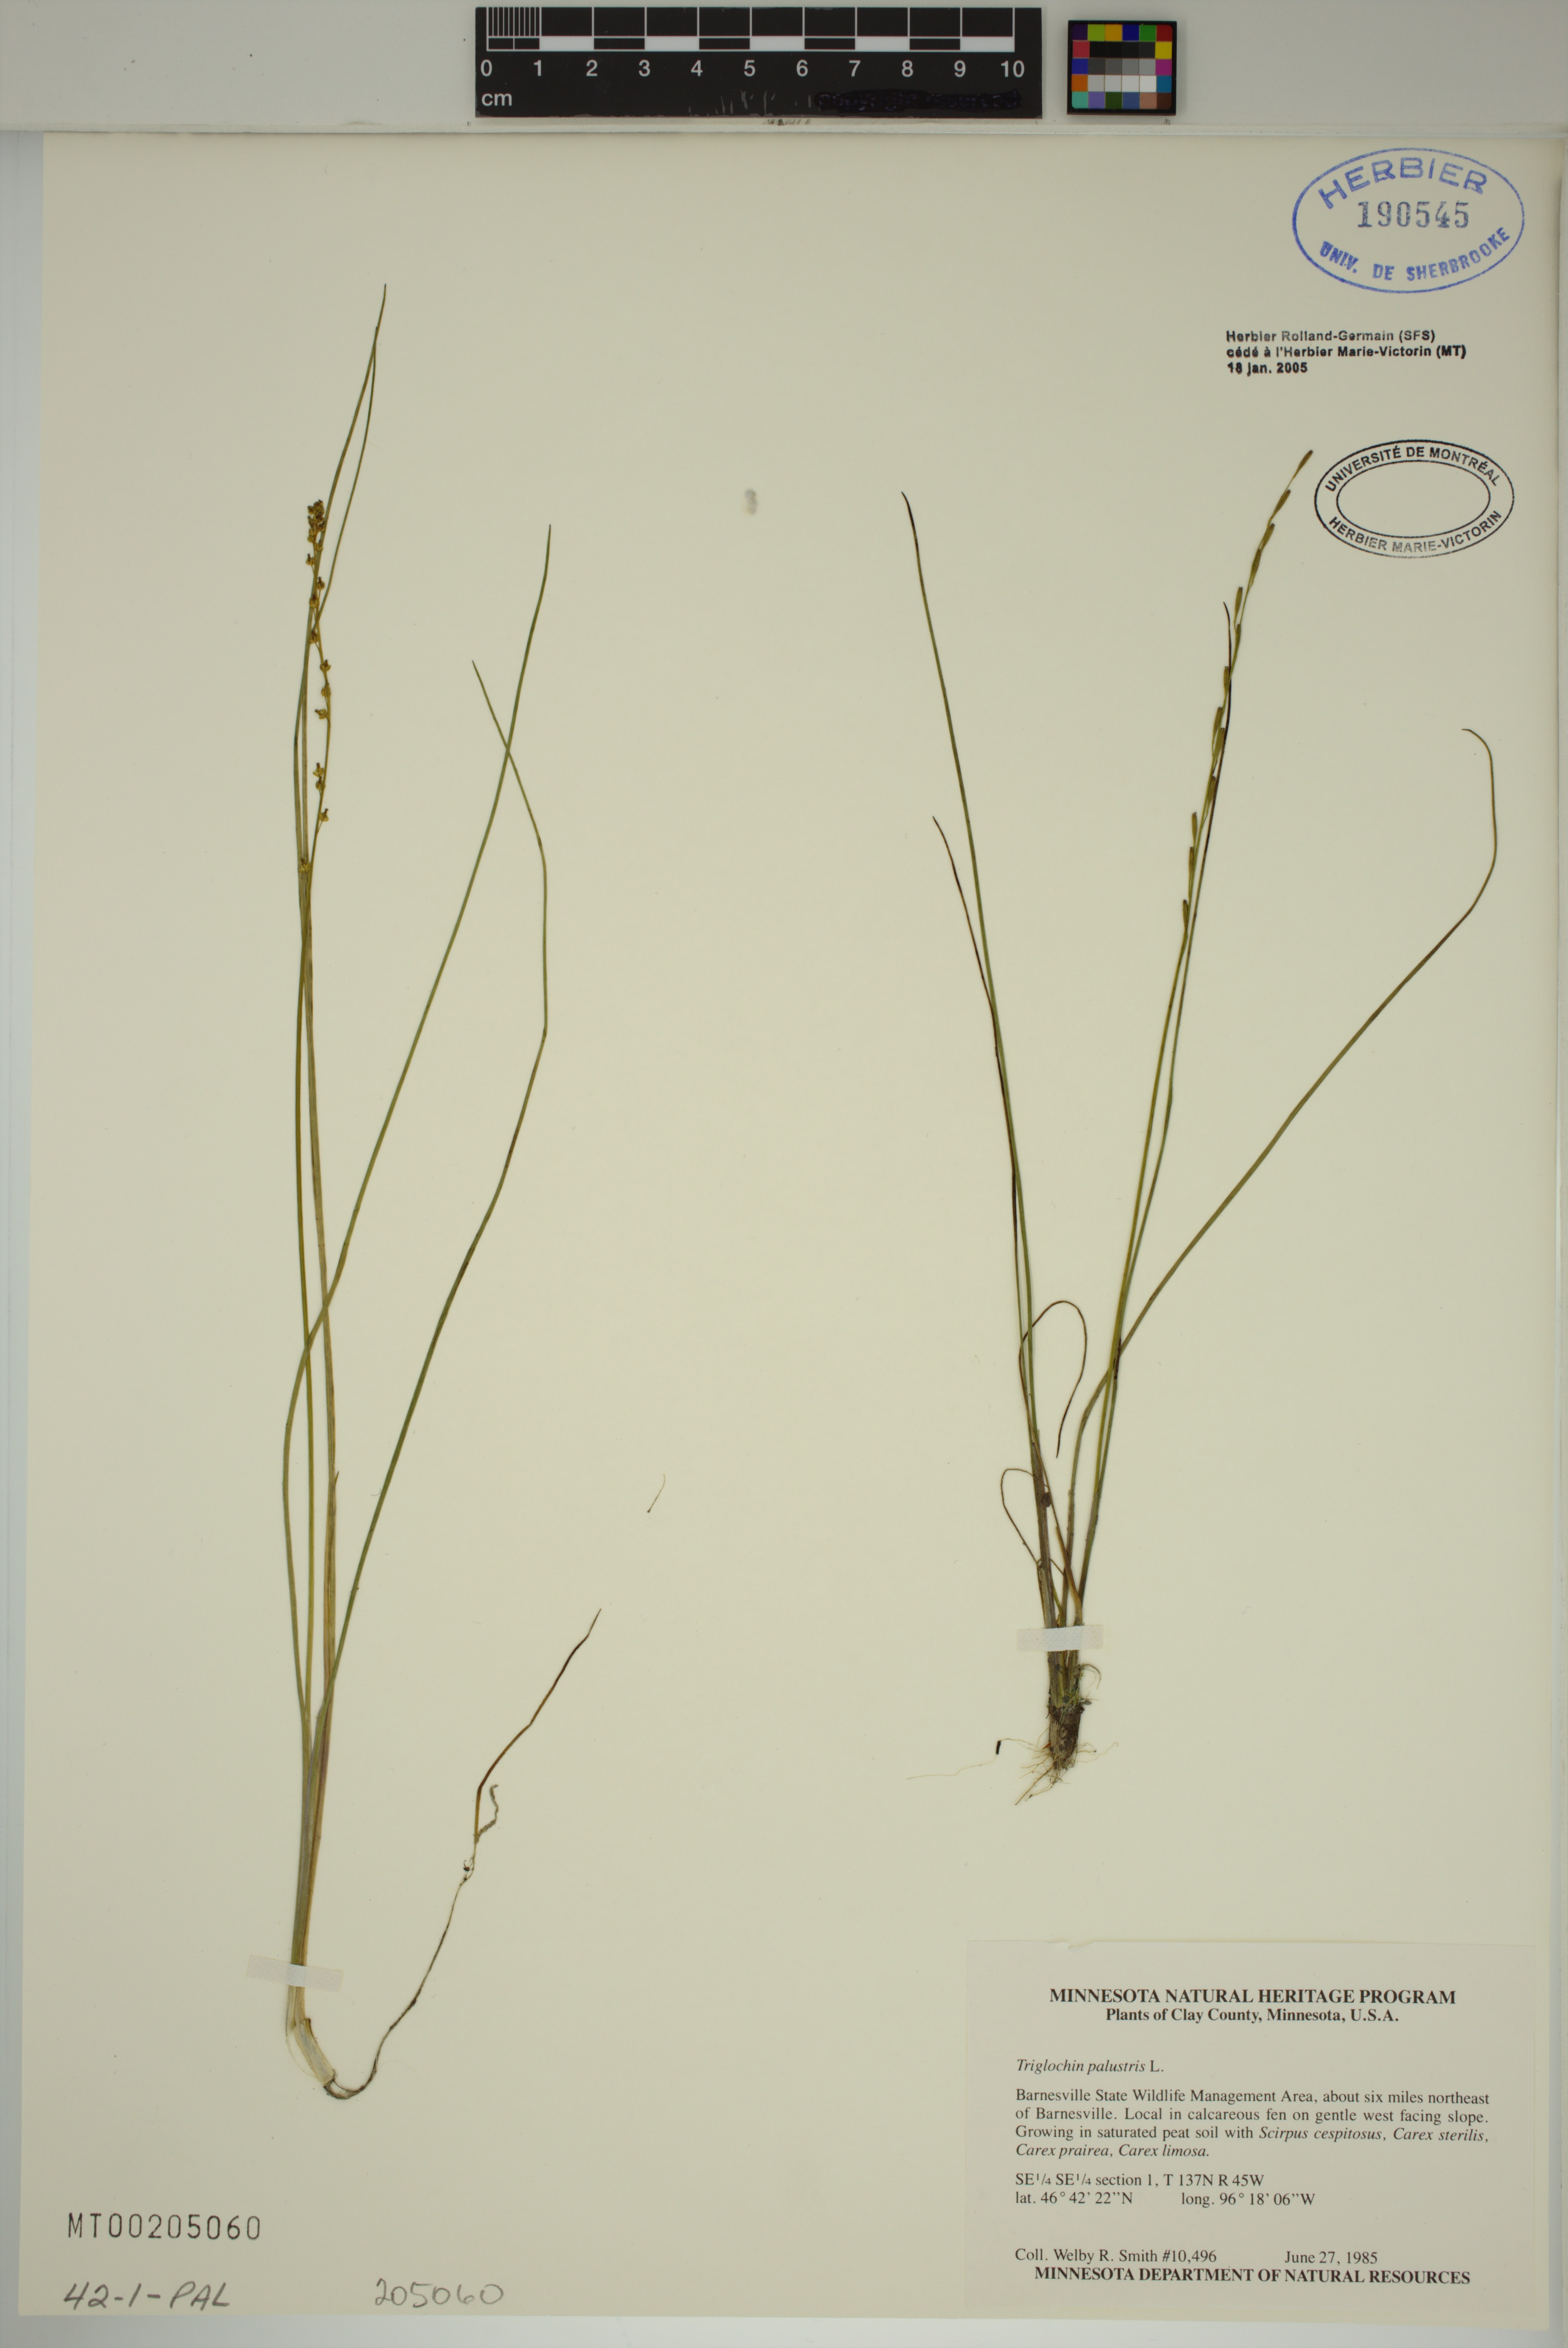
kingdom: Plantae
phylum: Tracheophyta
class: Liliopsida
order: Alismatales
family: Juncaginaceae
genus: Triglochin
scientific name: Triglochin palustris
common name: Marsh arrowgrass
